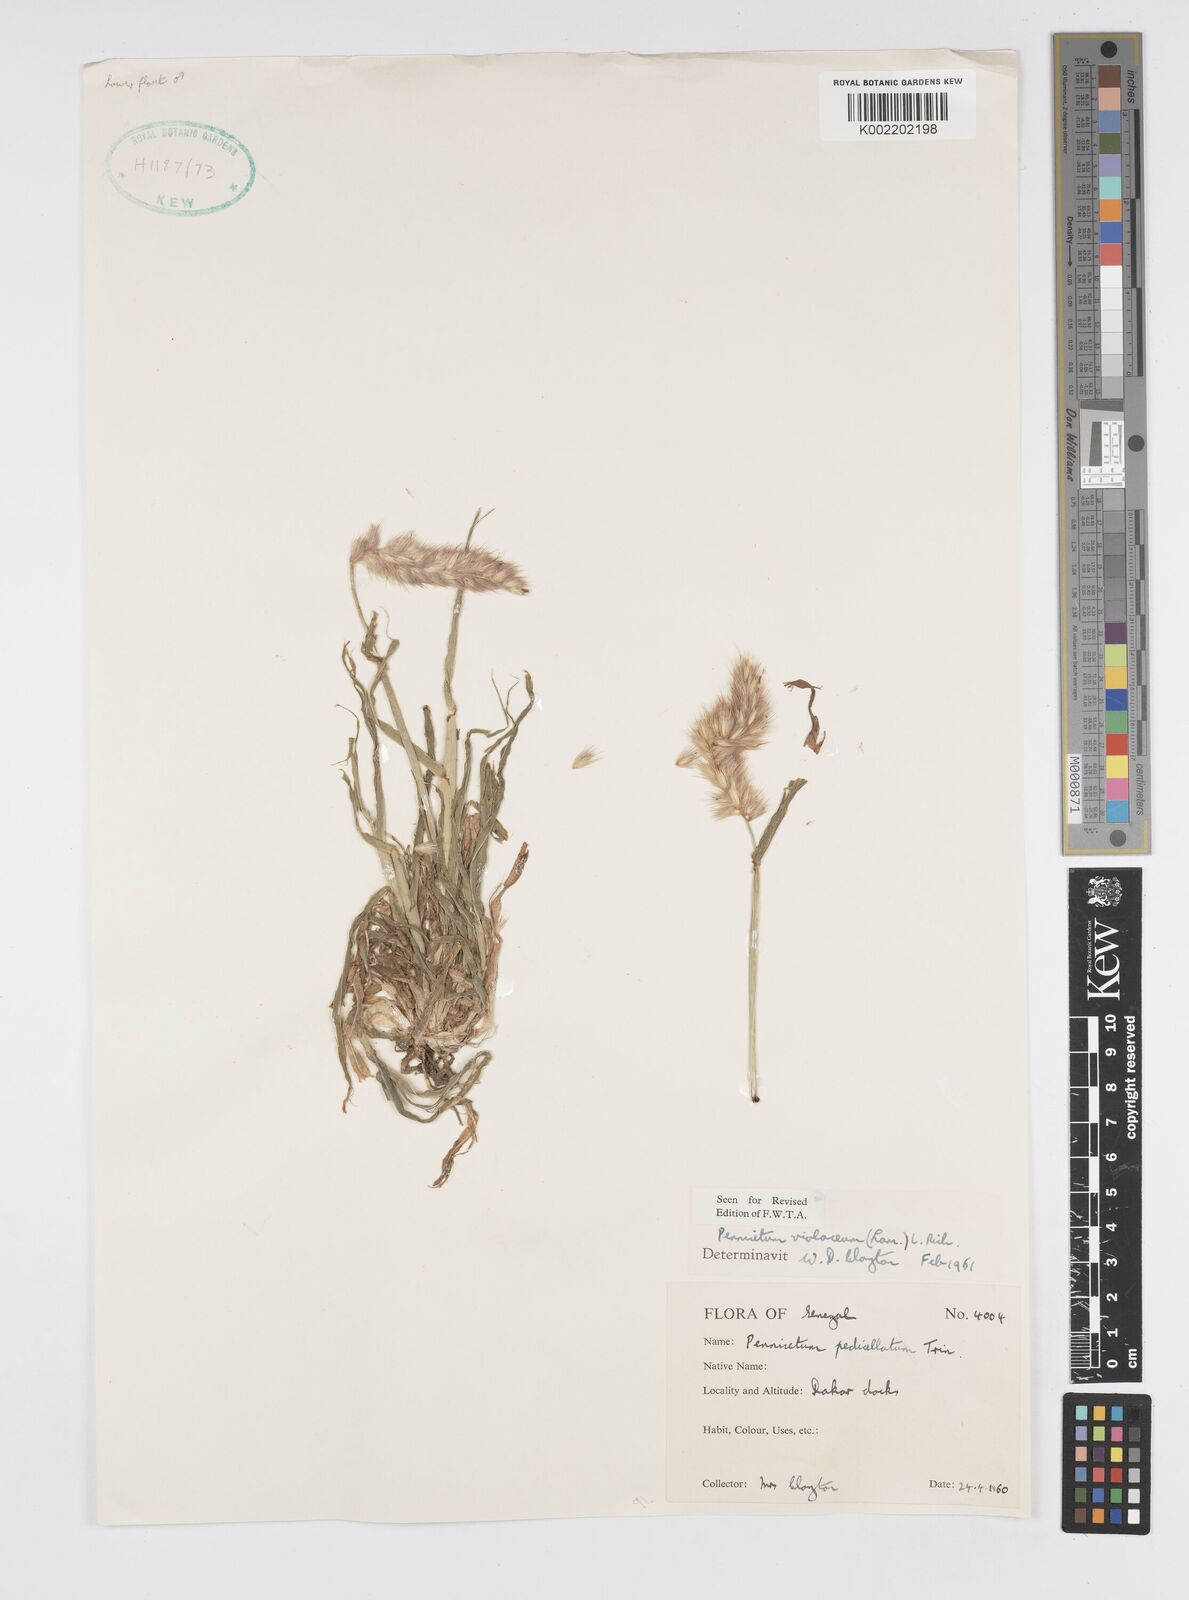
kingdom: Plantae
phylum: Tracheophyta
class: Liliopsida
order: Poales
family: Poaceae
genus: Cenchrus
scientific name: Cenchrus violaceus
